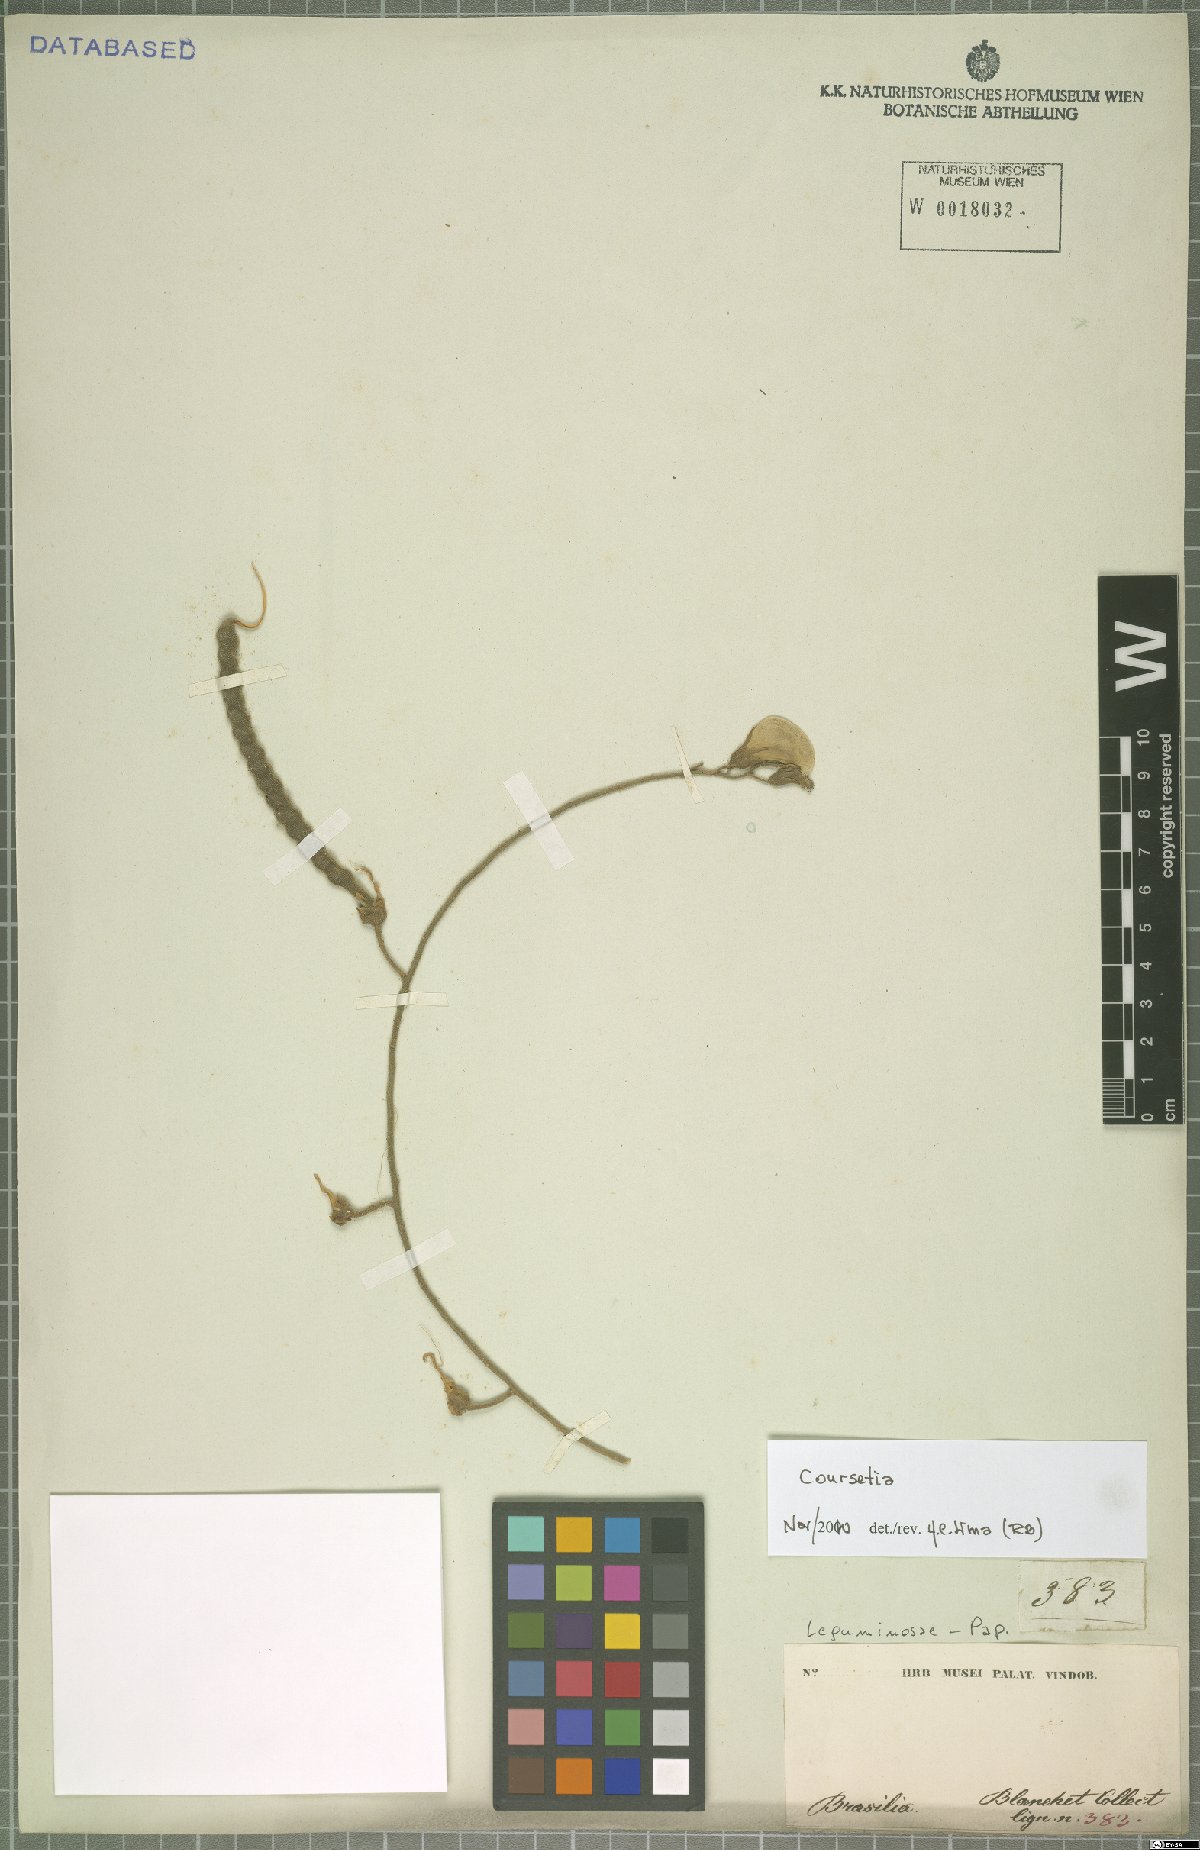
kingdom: Plantae
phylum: Tracheophyta
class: Magnoliopsida
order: Fabales
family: Fabaceae
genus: Coursetia
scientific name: Coursetia
